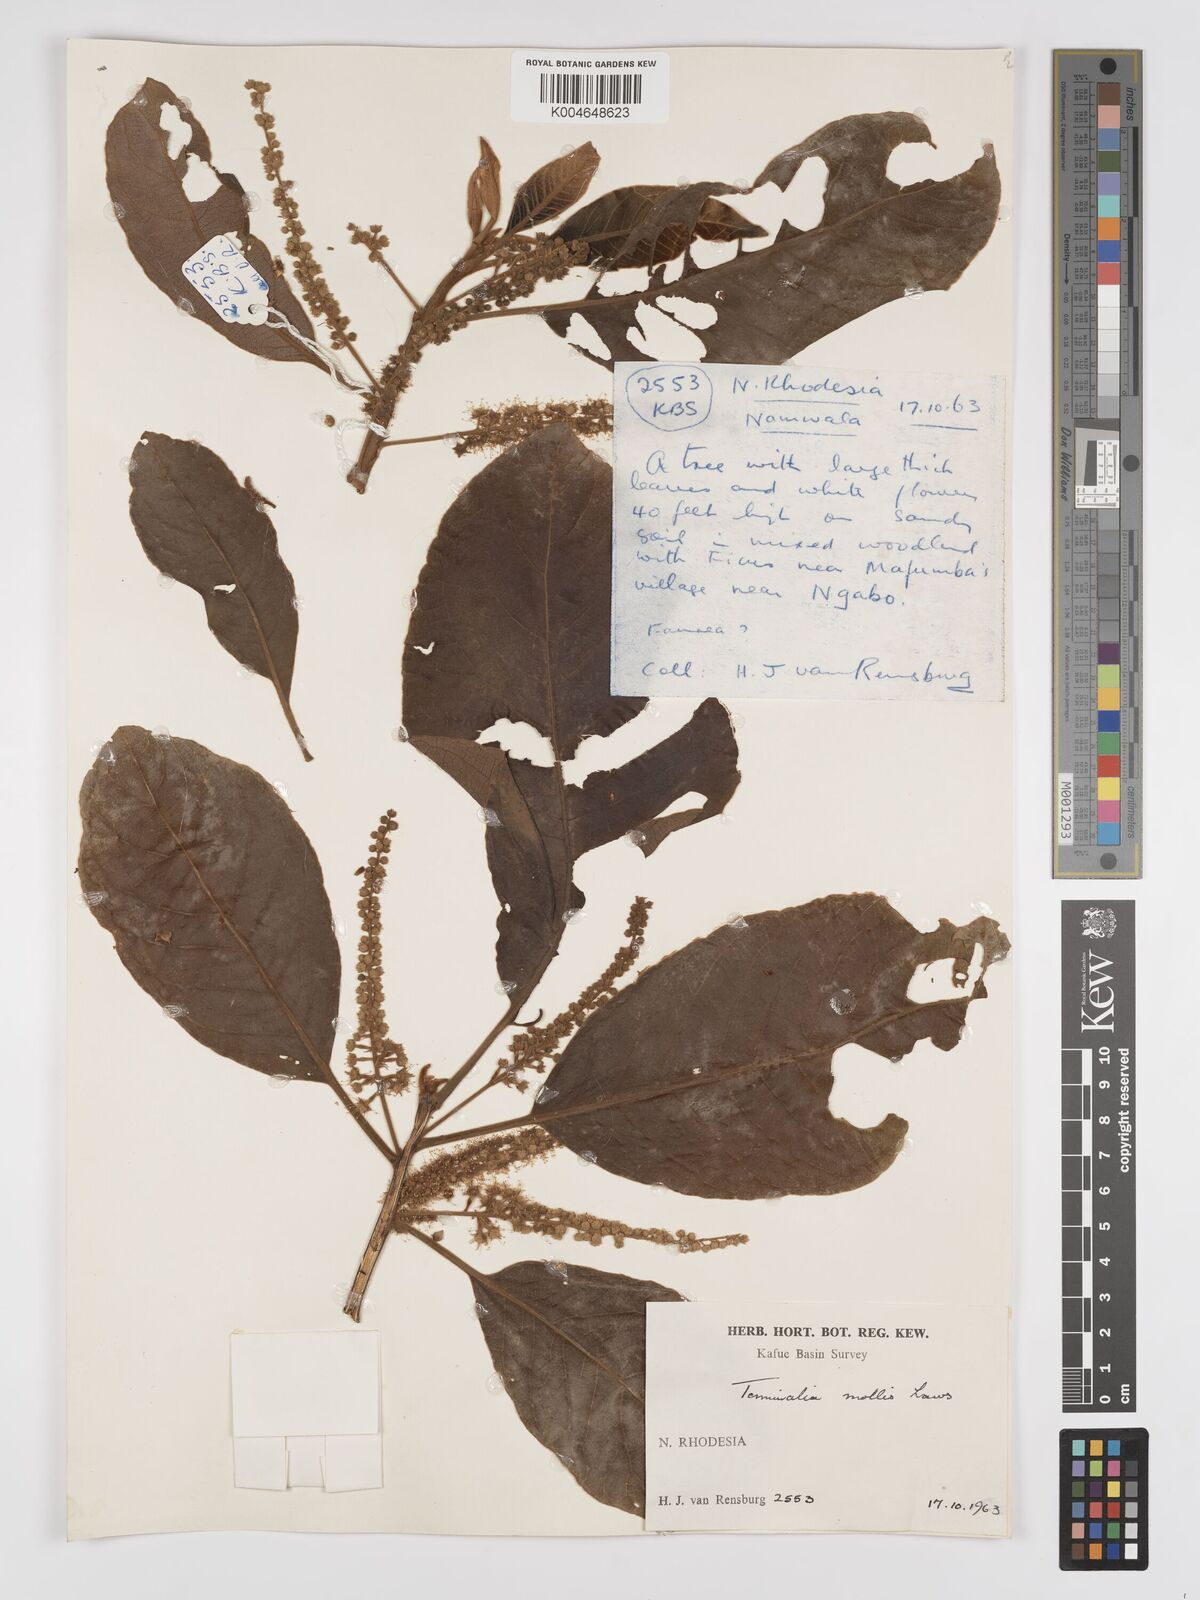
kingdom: Plantae
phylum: Tracheophyta
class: Magnoliopsida
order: Myrtales
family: Combretaceae
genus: Terminalia
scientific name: Terminalia
